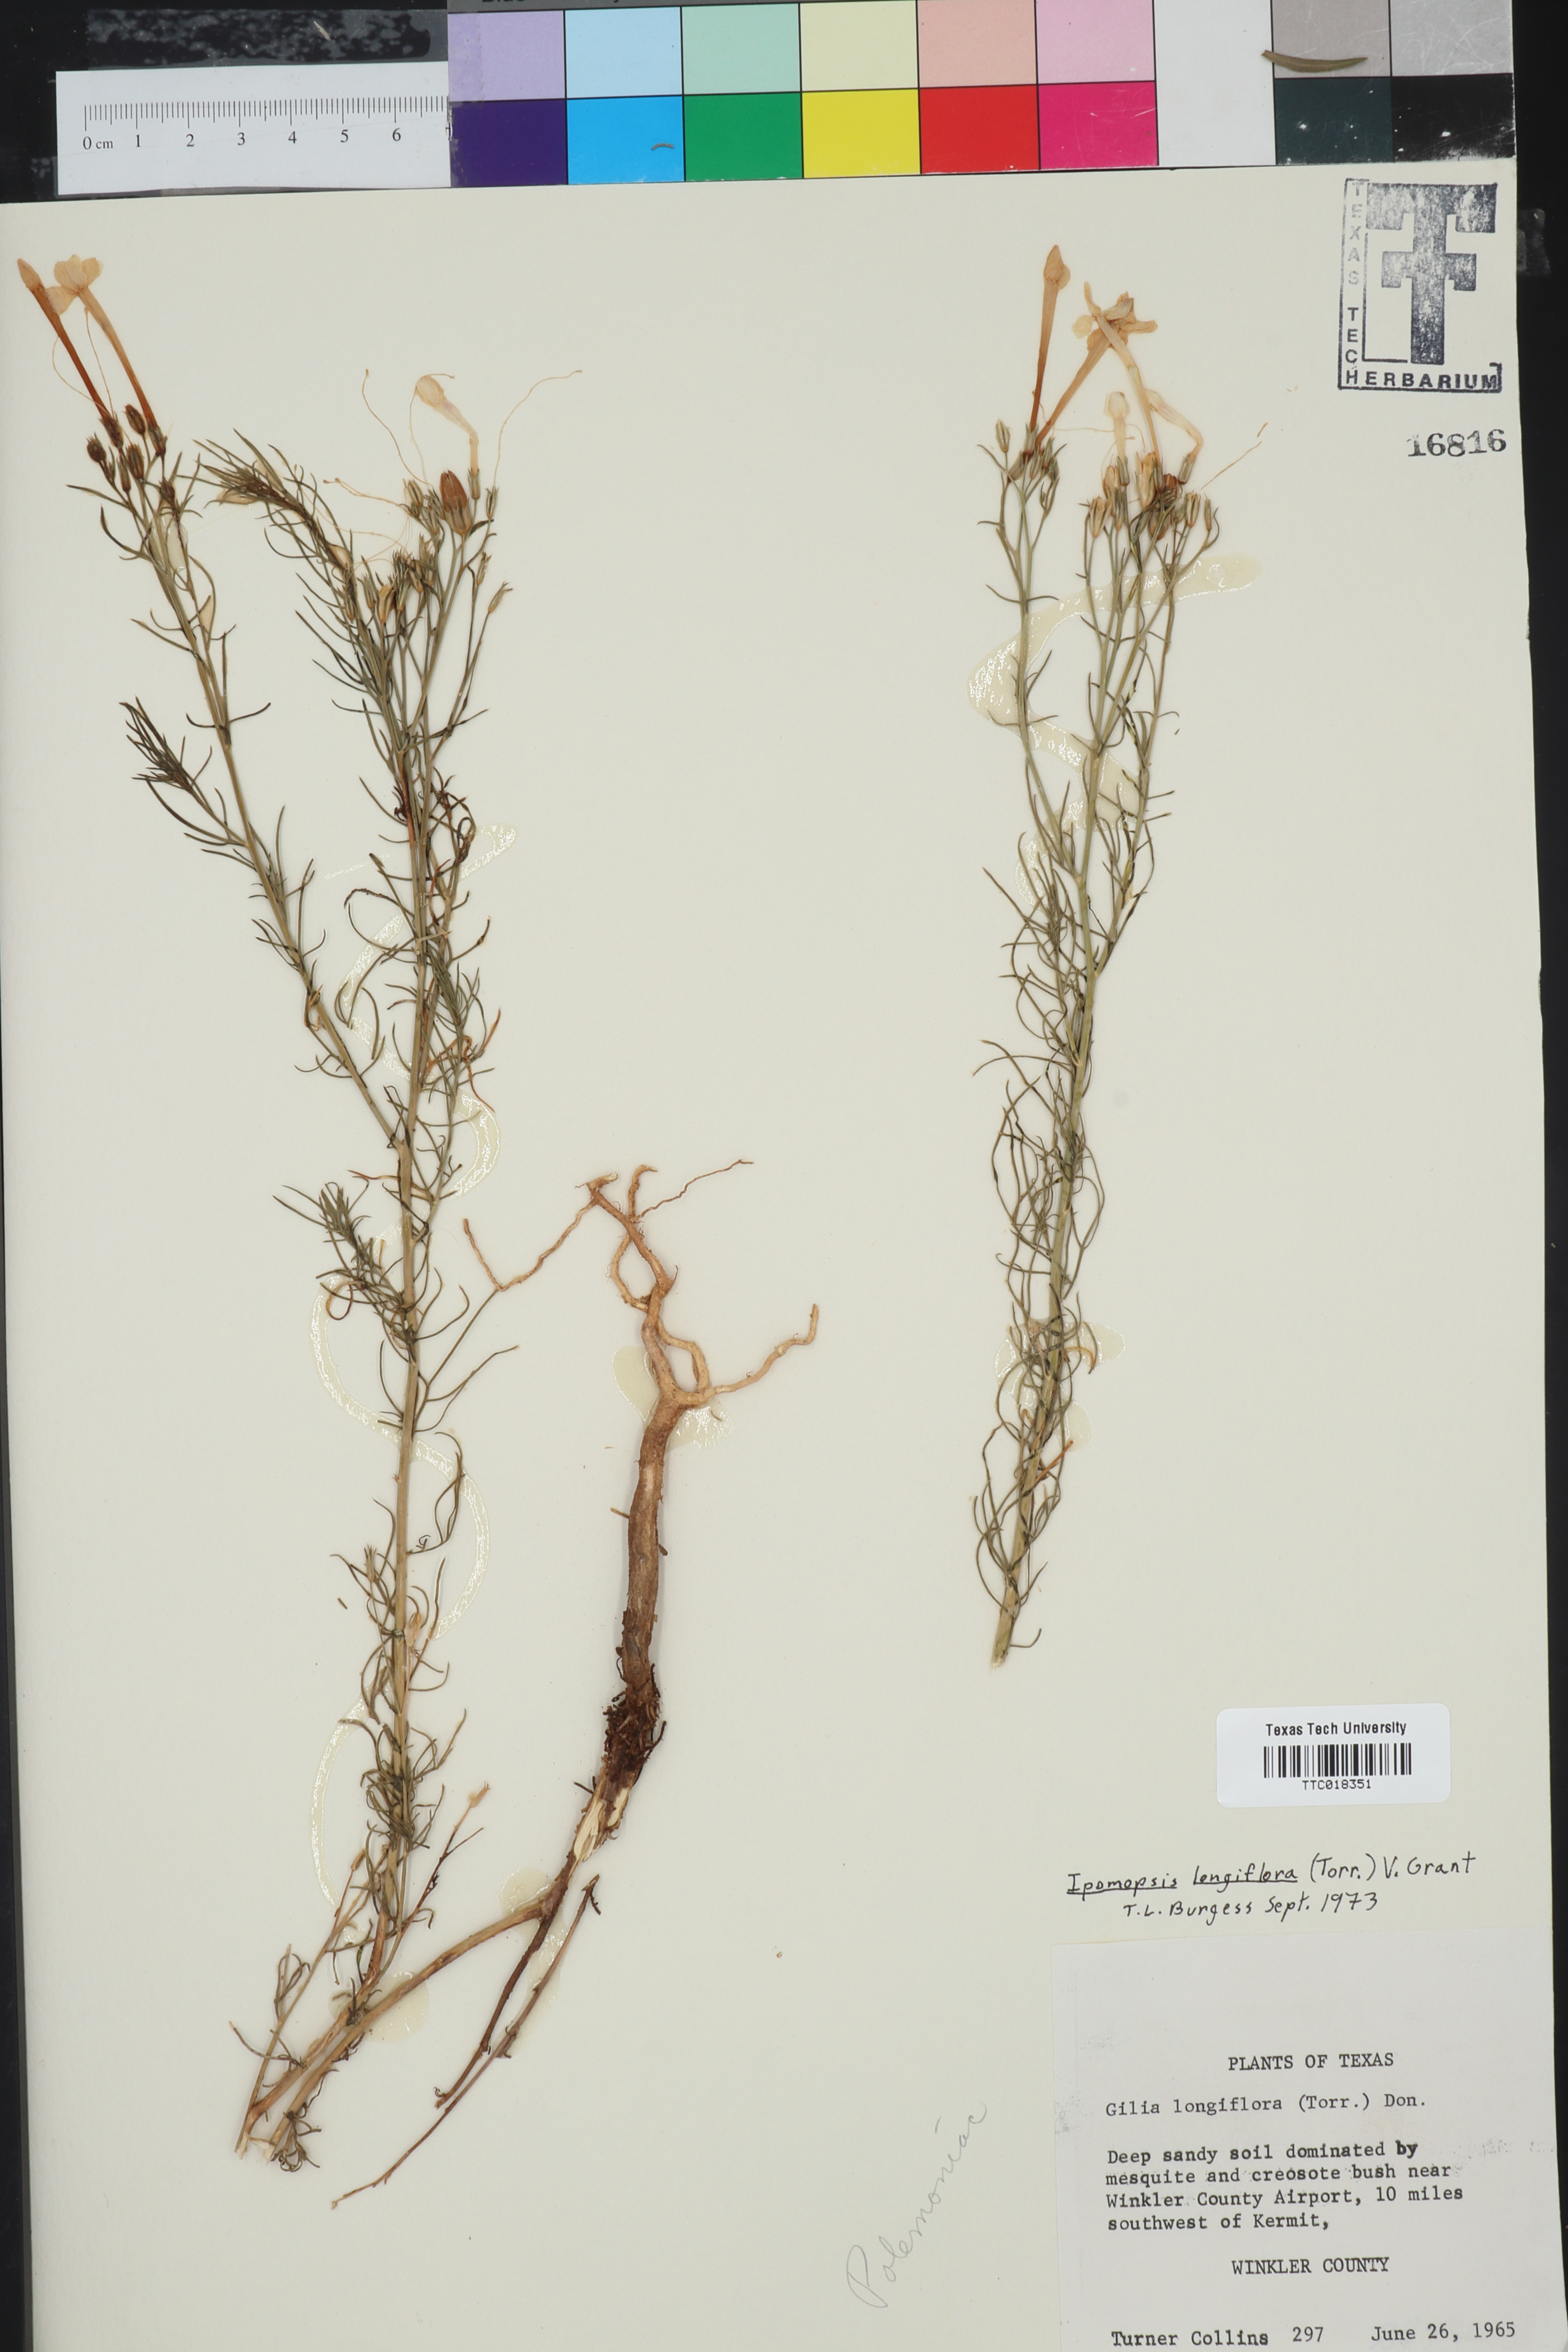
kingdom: Plantae
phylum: Tracheophyta
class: Magnoliopsida
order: Ericales
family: Polemoniaceae
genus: Ipomopsis
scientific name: Ipomopsis longiflora
